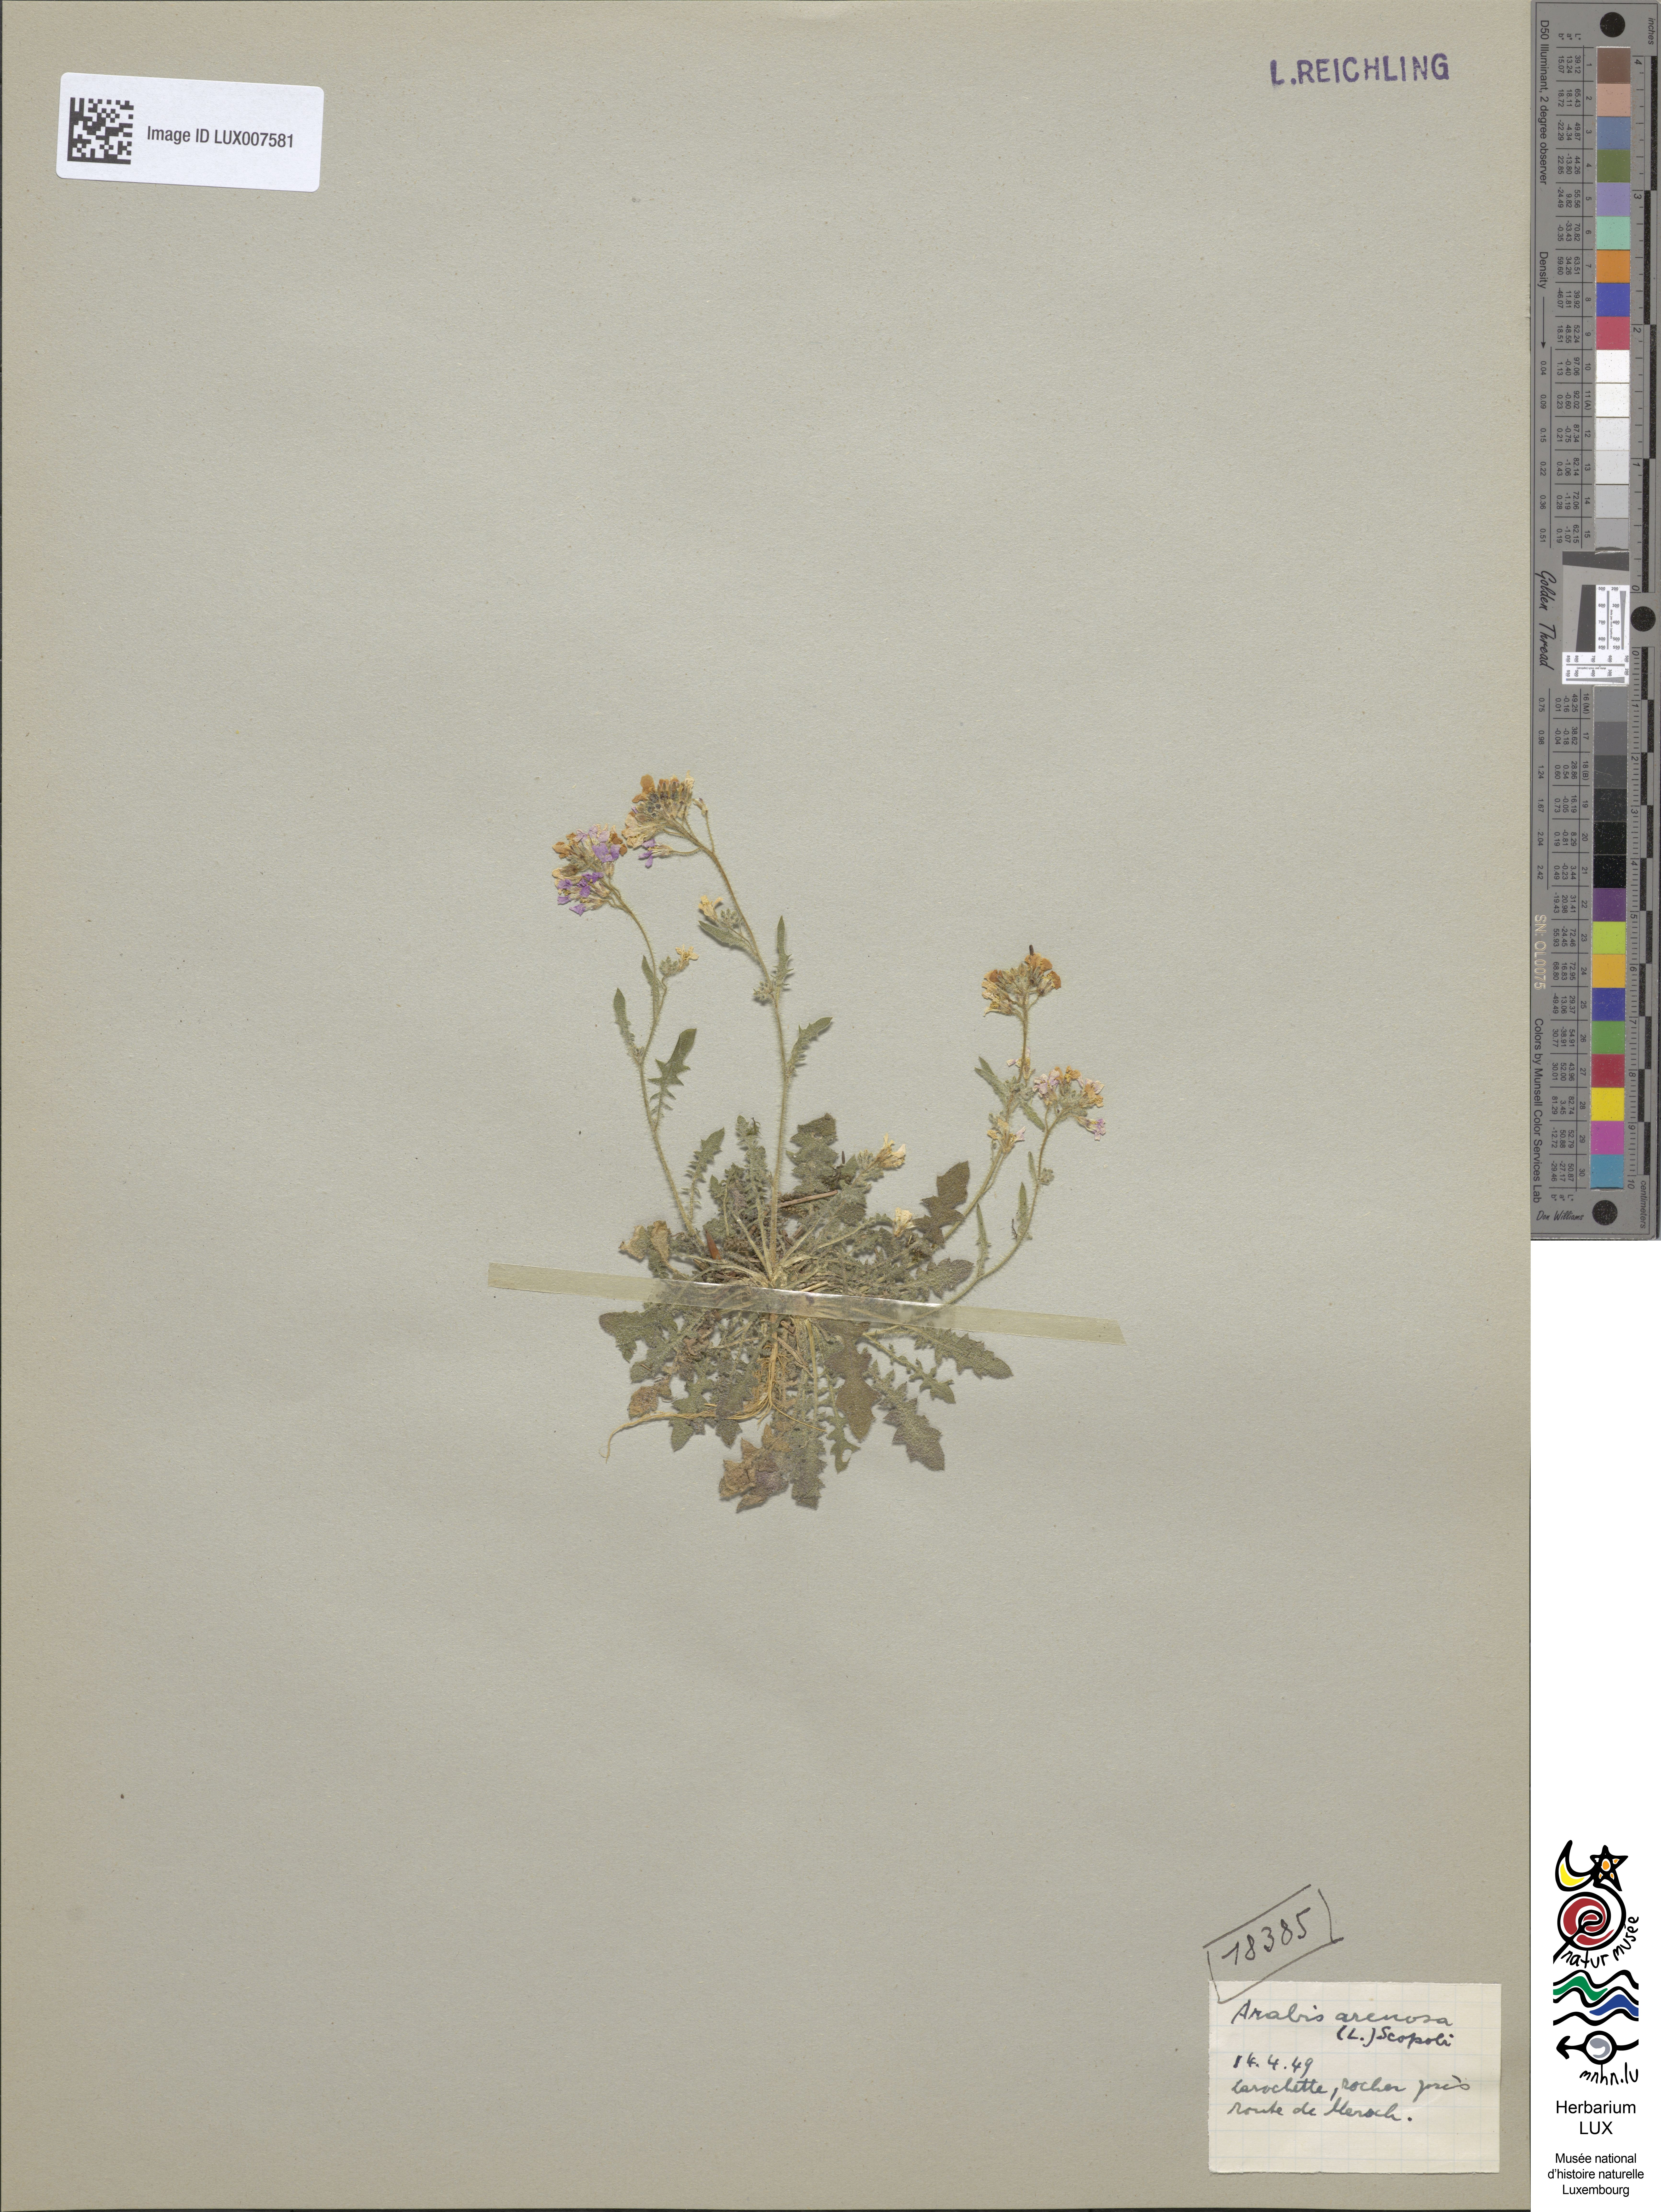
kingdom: Plantae
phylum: Tracheophyta
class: Magnoliopsida
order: Brassicales
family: Brassicaceae
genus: Arabidopsis
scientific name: Arabidopsis arenosa
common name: Sand rock-cress
